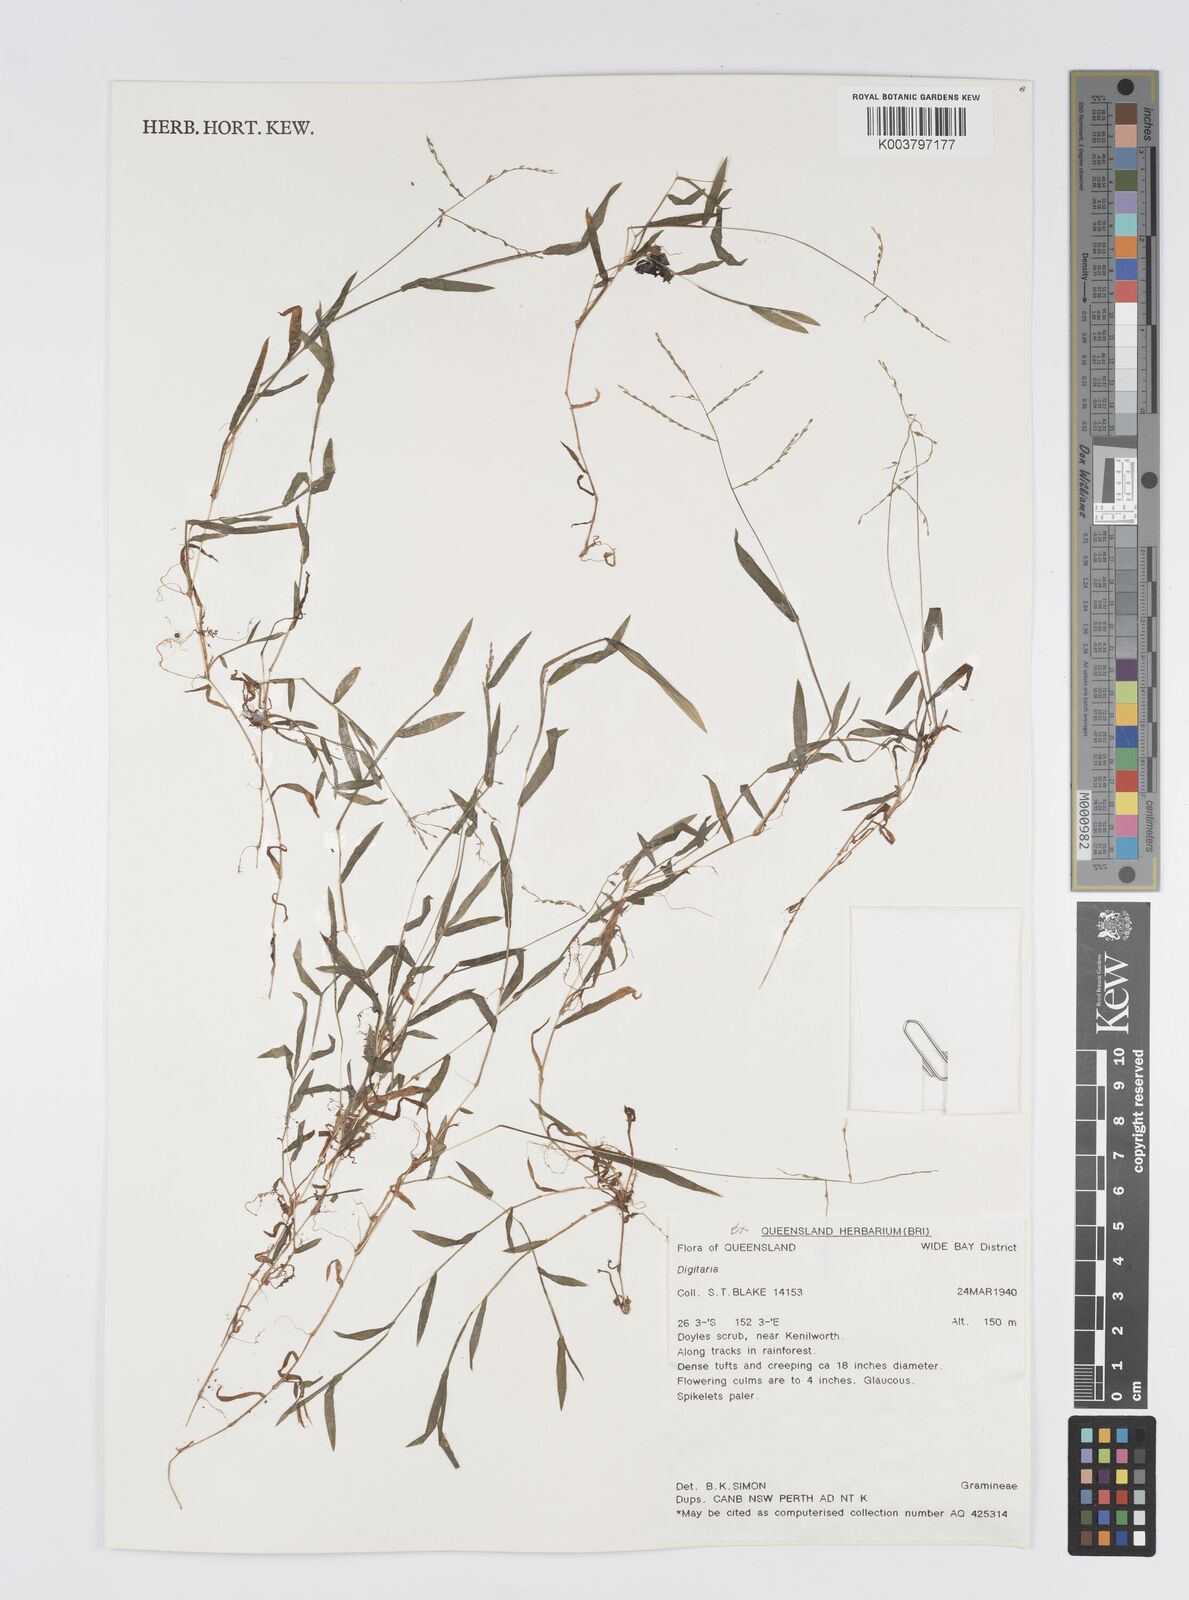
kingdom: Plantae
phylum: Tracheophyta
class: Liliopsida
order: Poales
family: Poaceae
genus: Digitaria
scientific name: Digitaria spec
